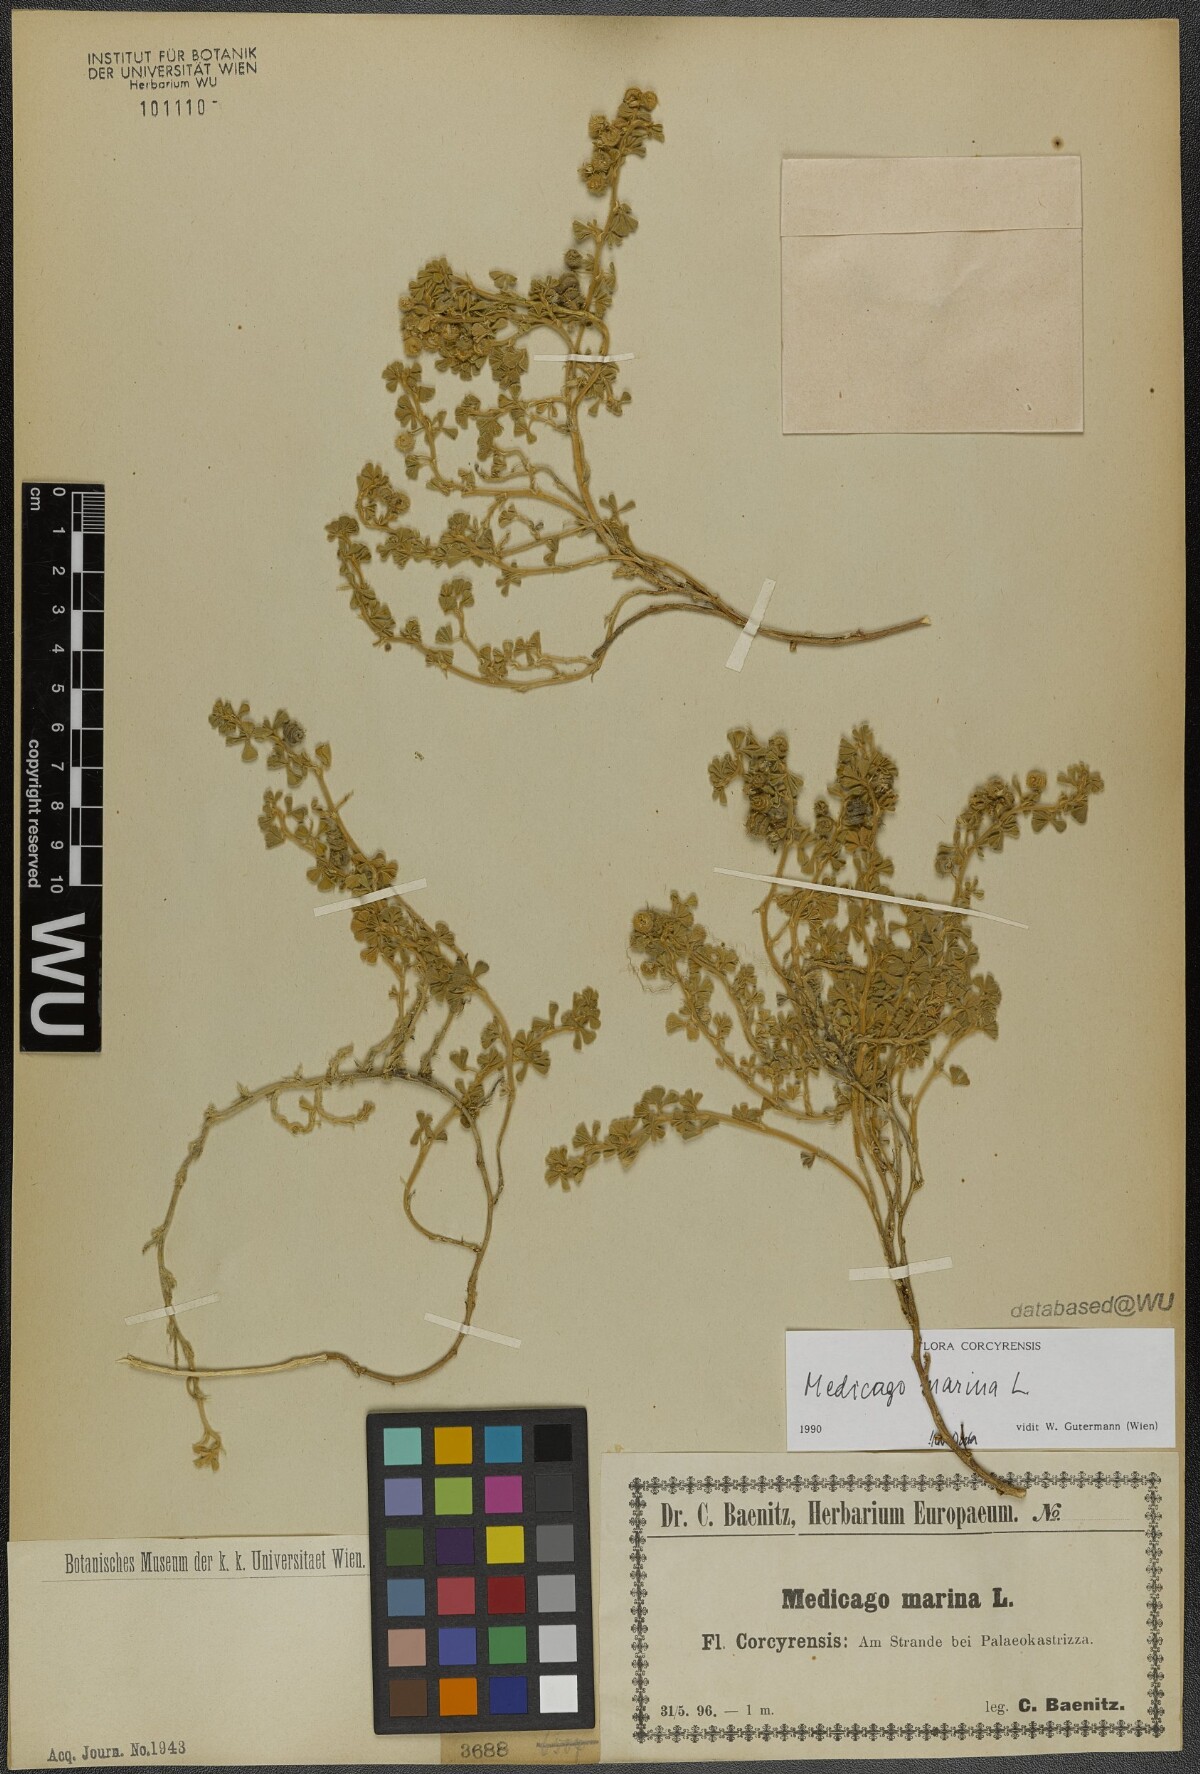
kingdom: Plantae
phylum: Tracheophyta
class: Magnoliopsida
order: Fabales
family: Fabaceae
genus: Medicago
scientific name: Medicago marina
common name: Sea medick
